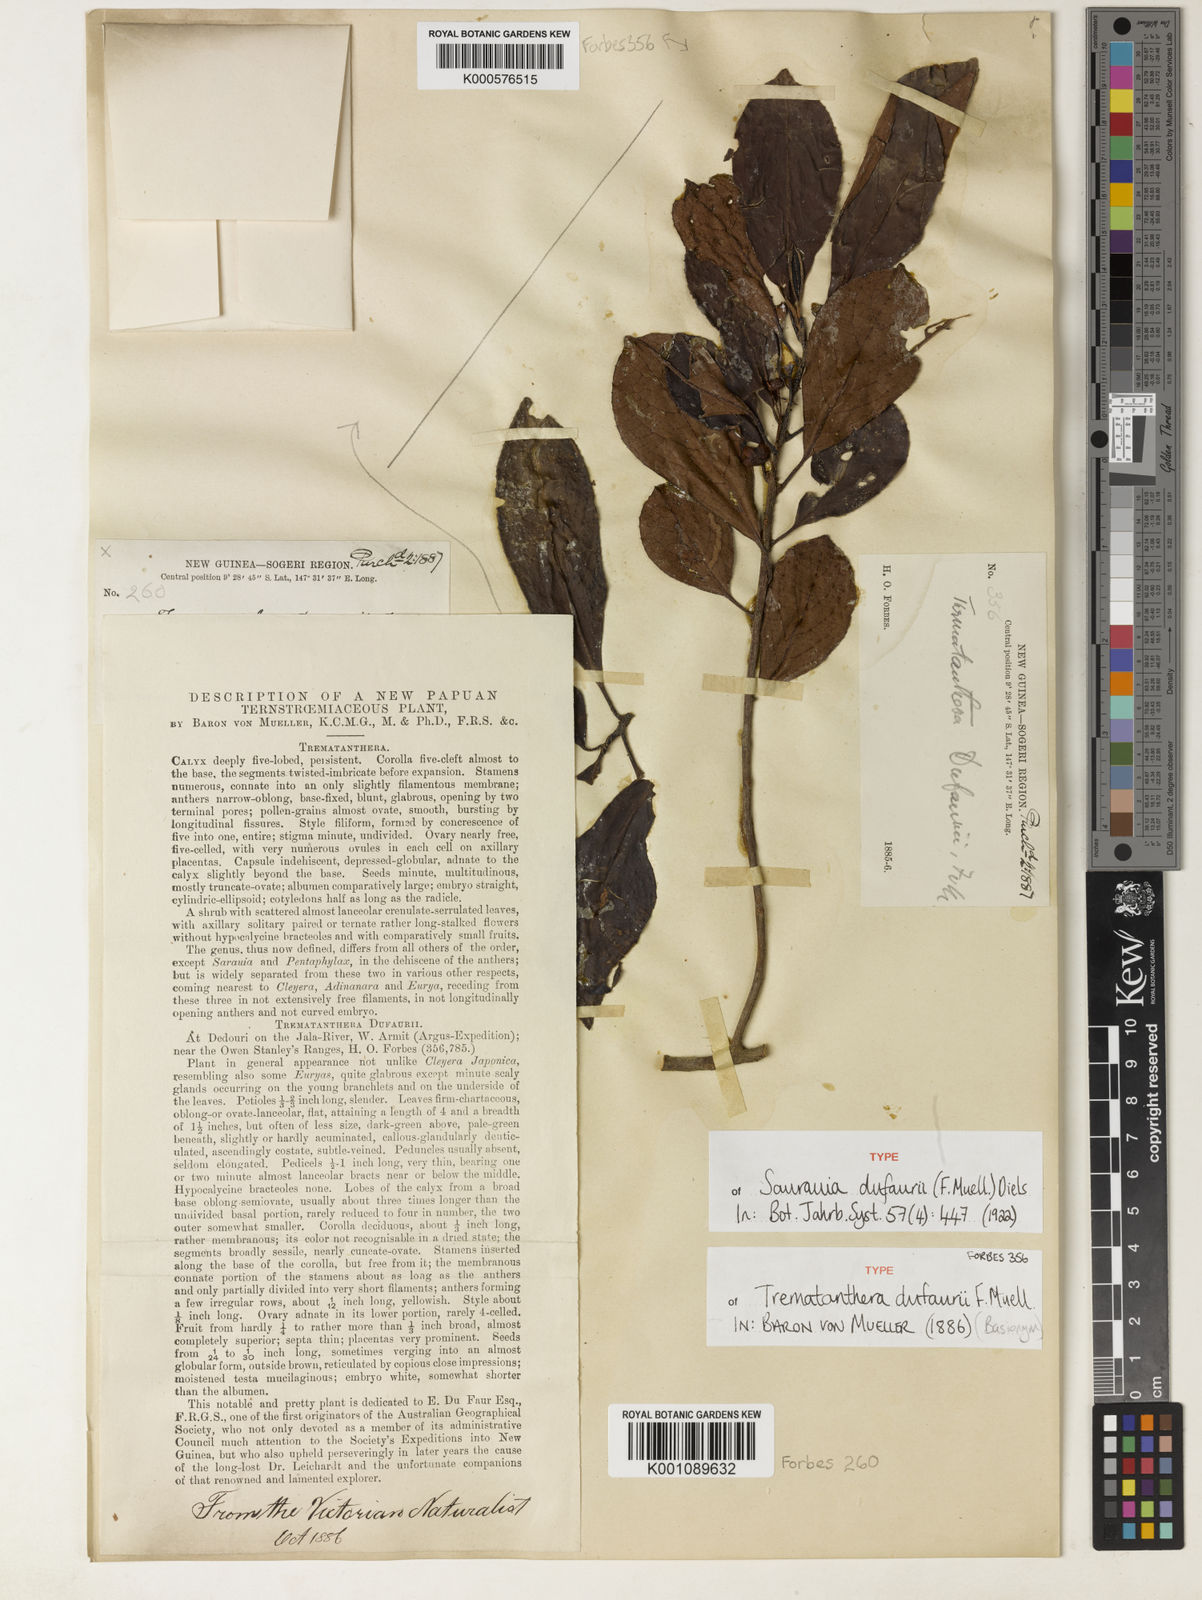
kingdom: Plantae
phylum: Tracheophyta
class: Magnoliopsida
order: Ericales
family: Actinidiaceae
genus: Saurauia
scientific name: Saurauia dufaurii
